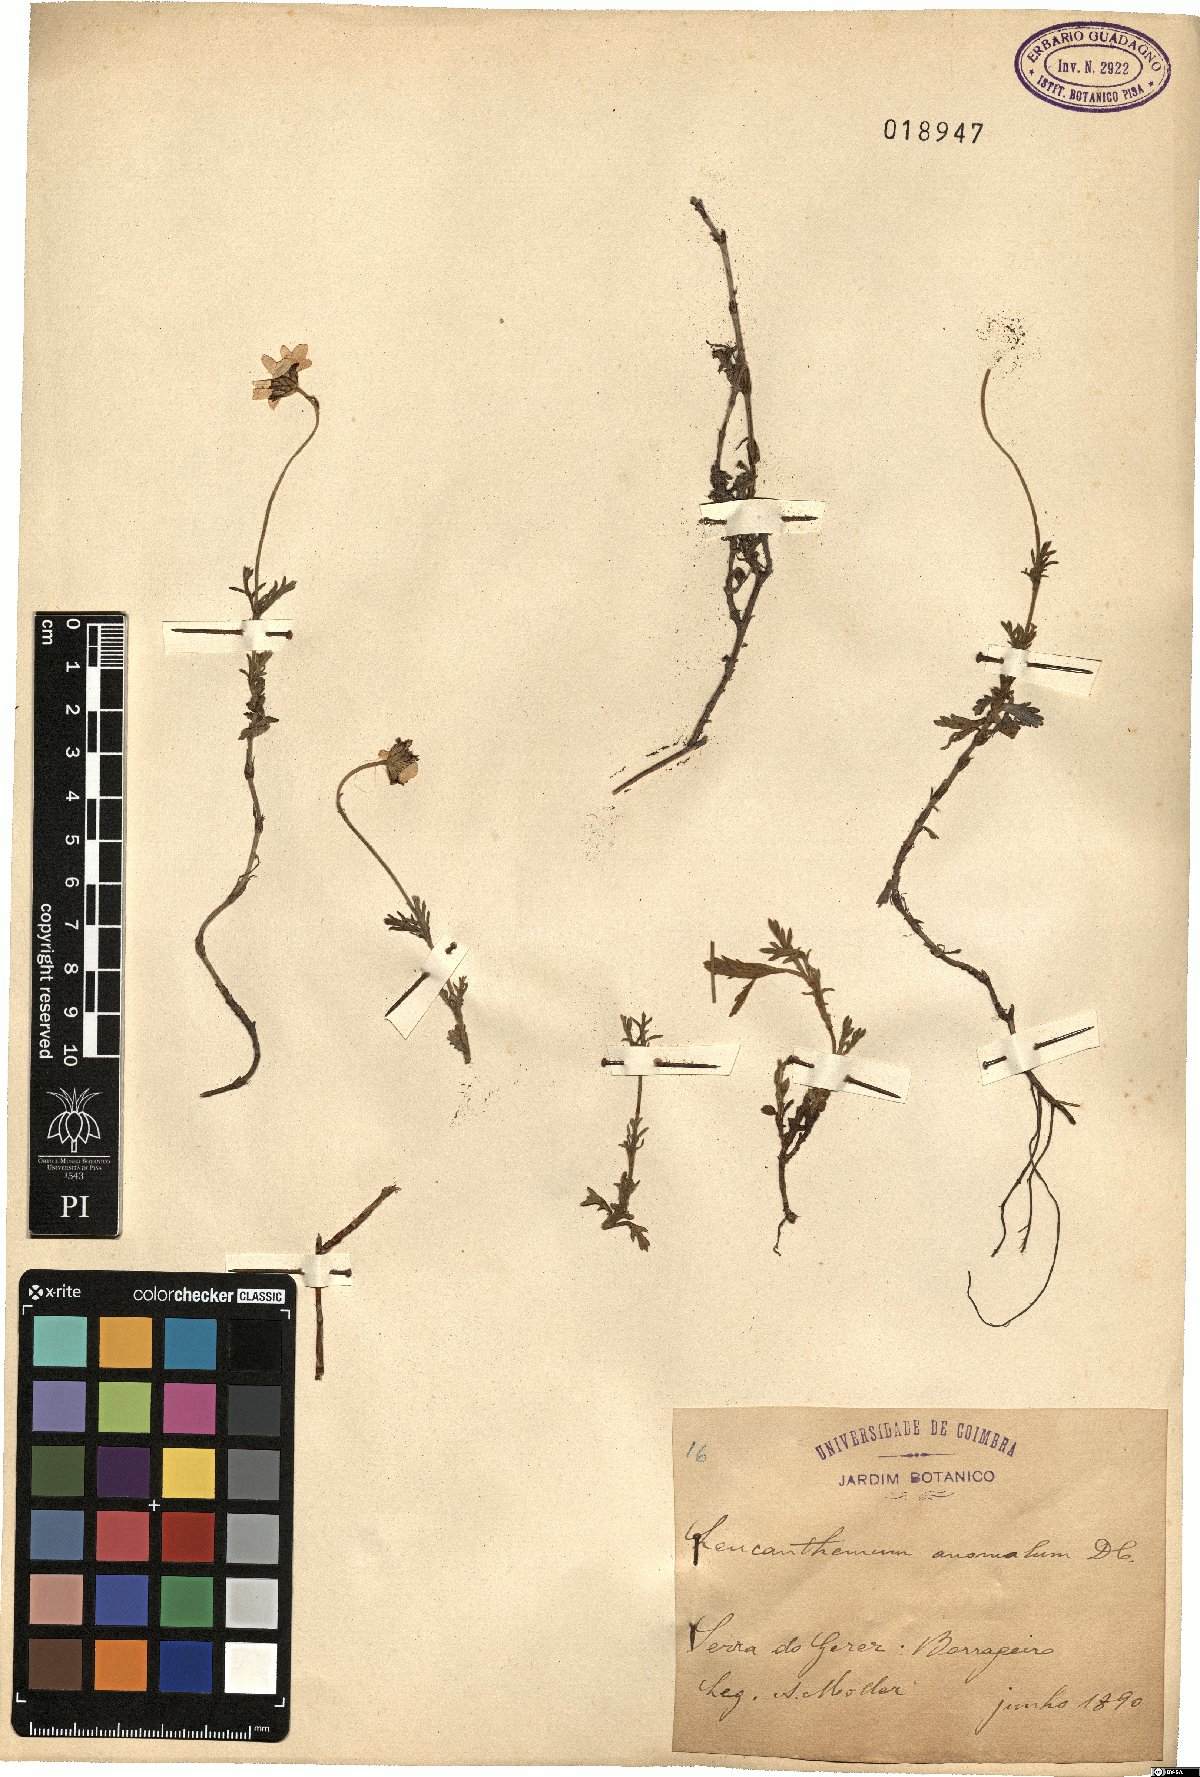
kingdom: Plantae
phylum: Tracheophyta
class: Magnoliopsida
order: Asterales
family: Asteraceae
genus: Phalacrocarpum
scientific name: Phalacrocarpum oppositifolium
